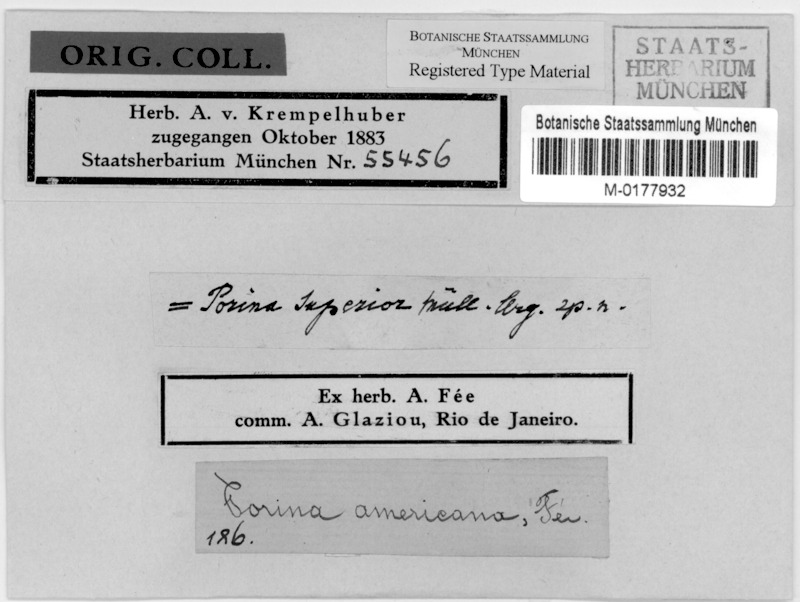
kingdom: Fungi
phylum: Ascomycota
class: Lecanoromycetes
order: Pertusariales
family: Pertusariaceae
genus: Porina
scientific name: Porina
